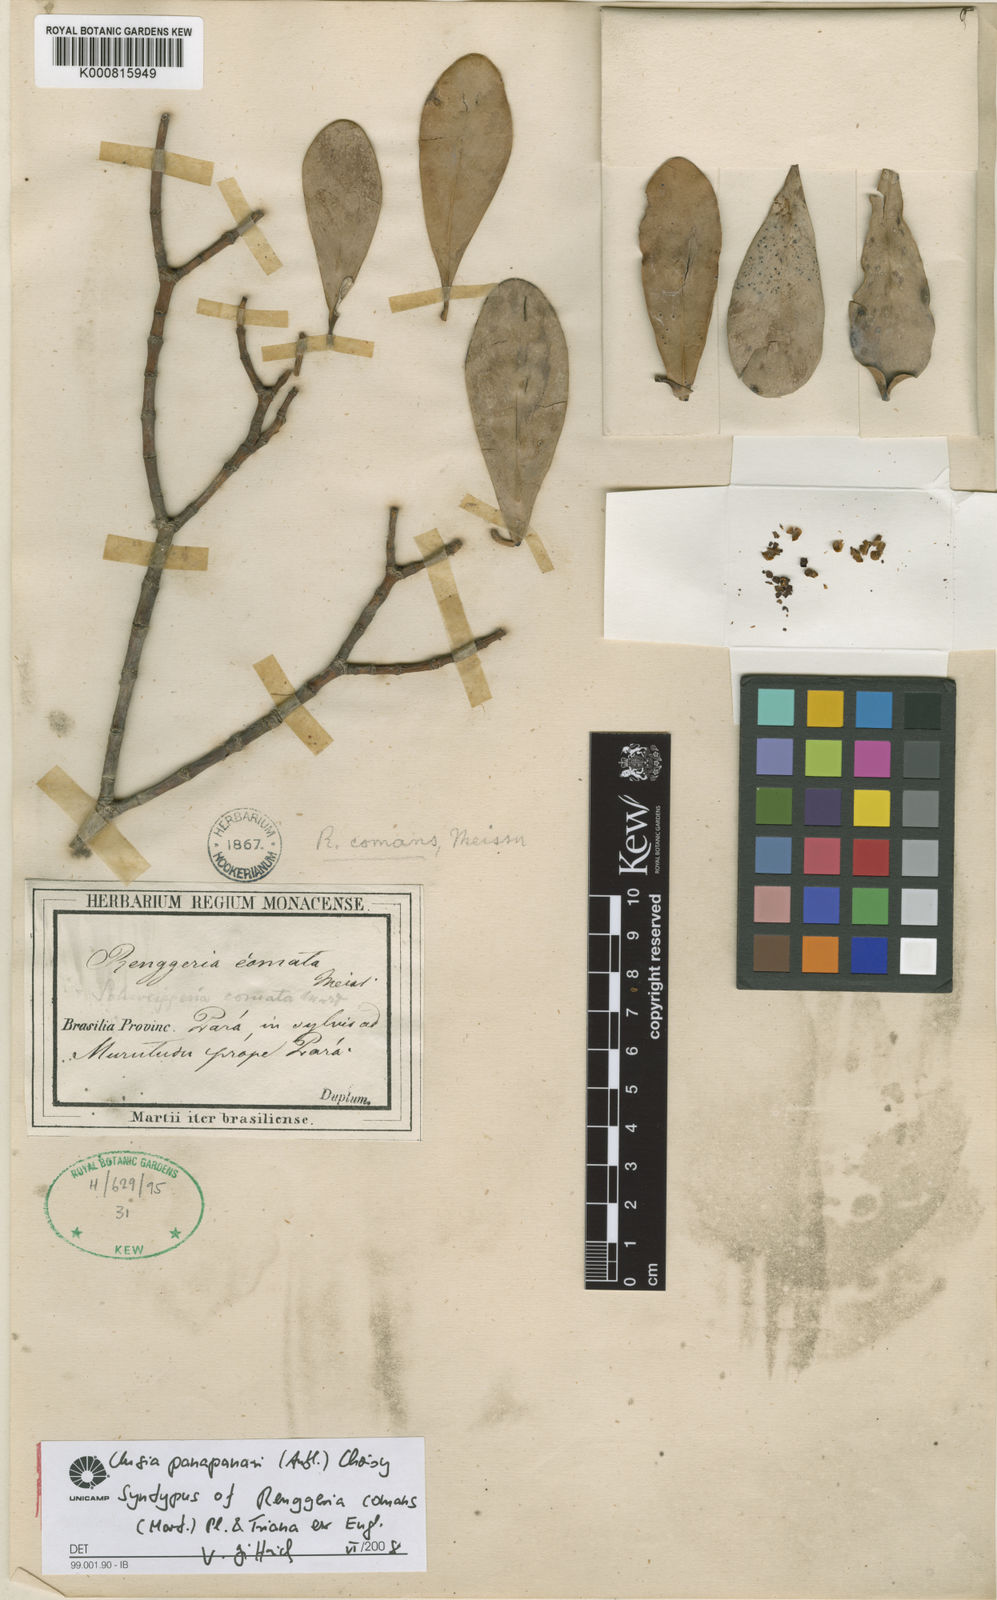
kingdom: Plantae
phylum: Tracheophyta
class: Magnoliopsida
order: Malpighiales
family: Clusiaceae
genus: Clusia
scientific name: Clusia panapanari
